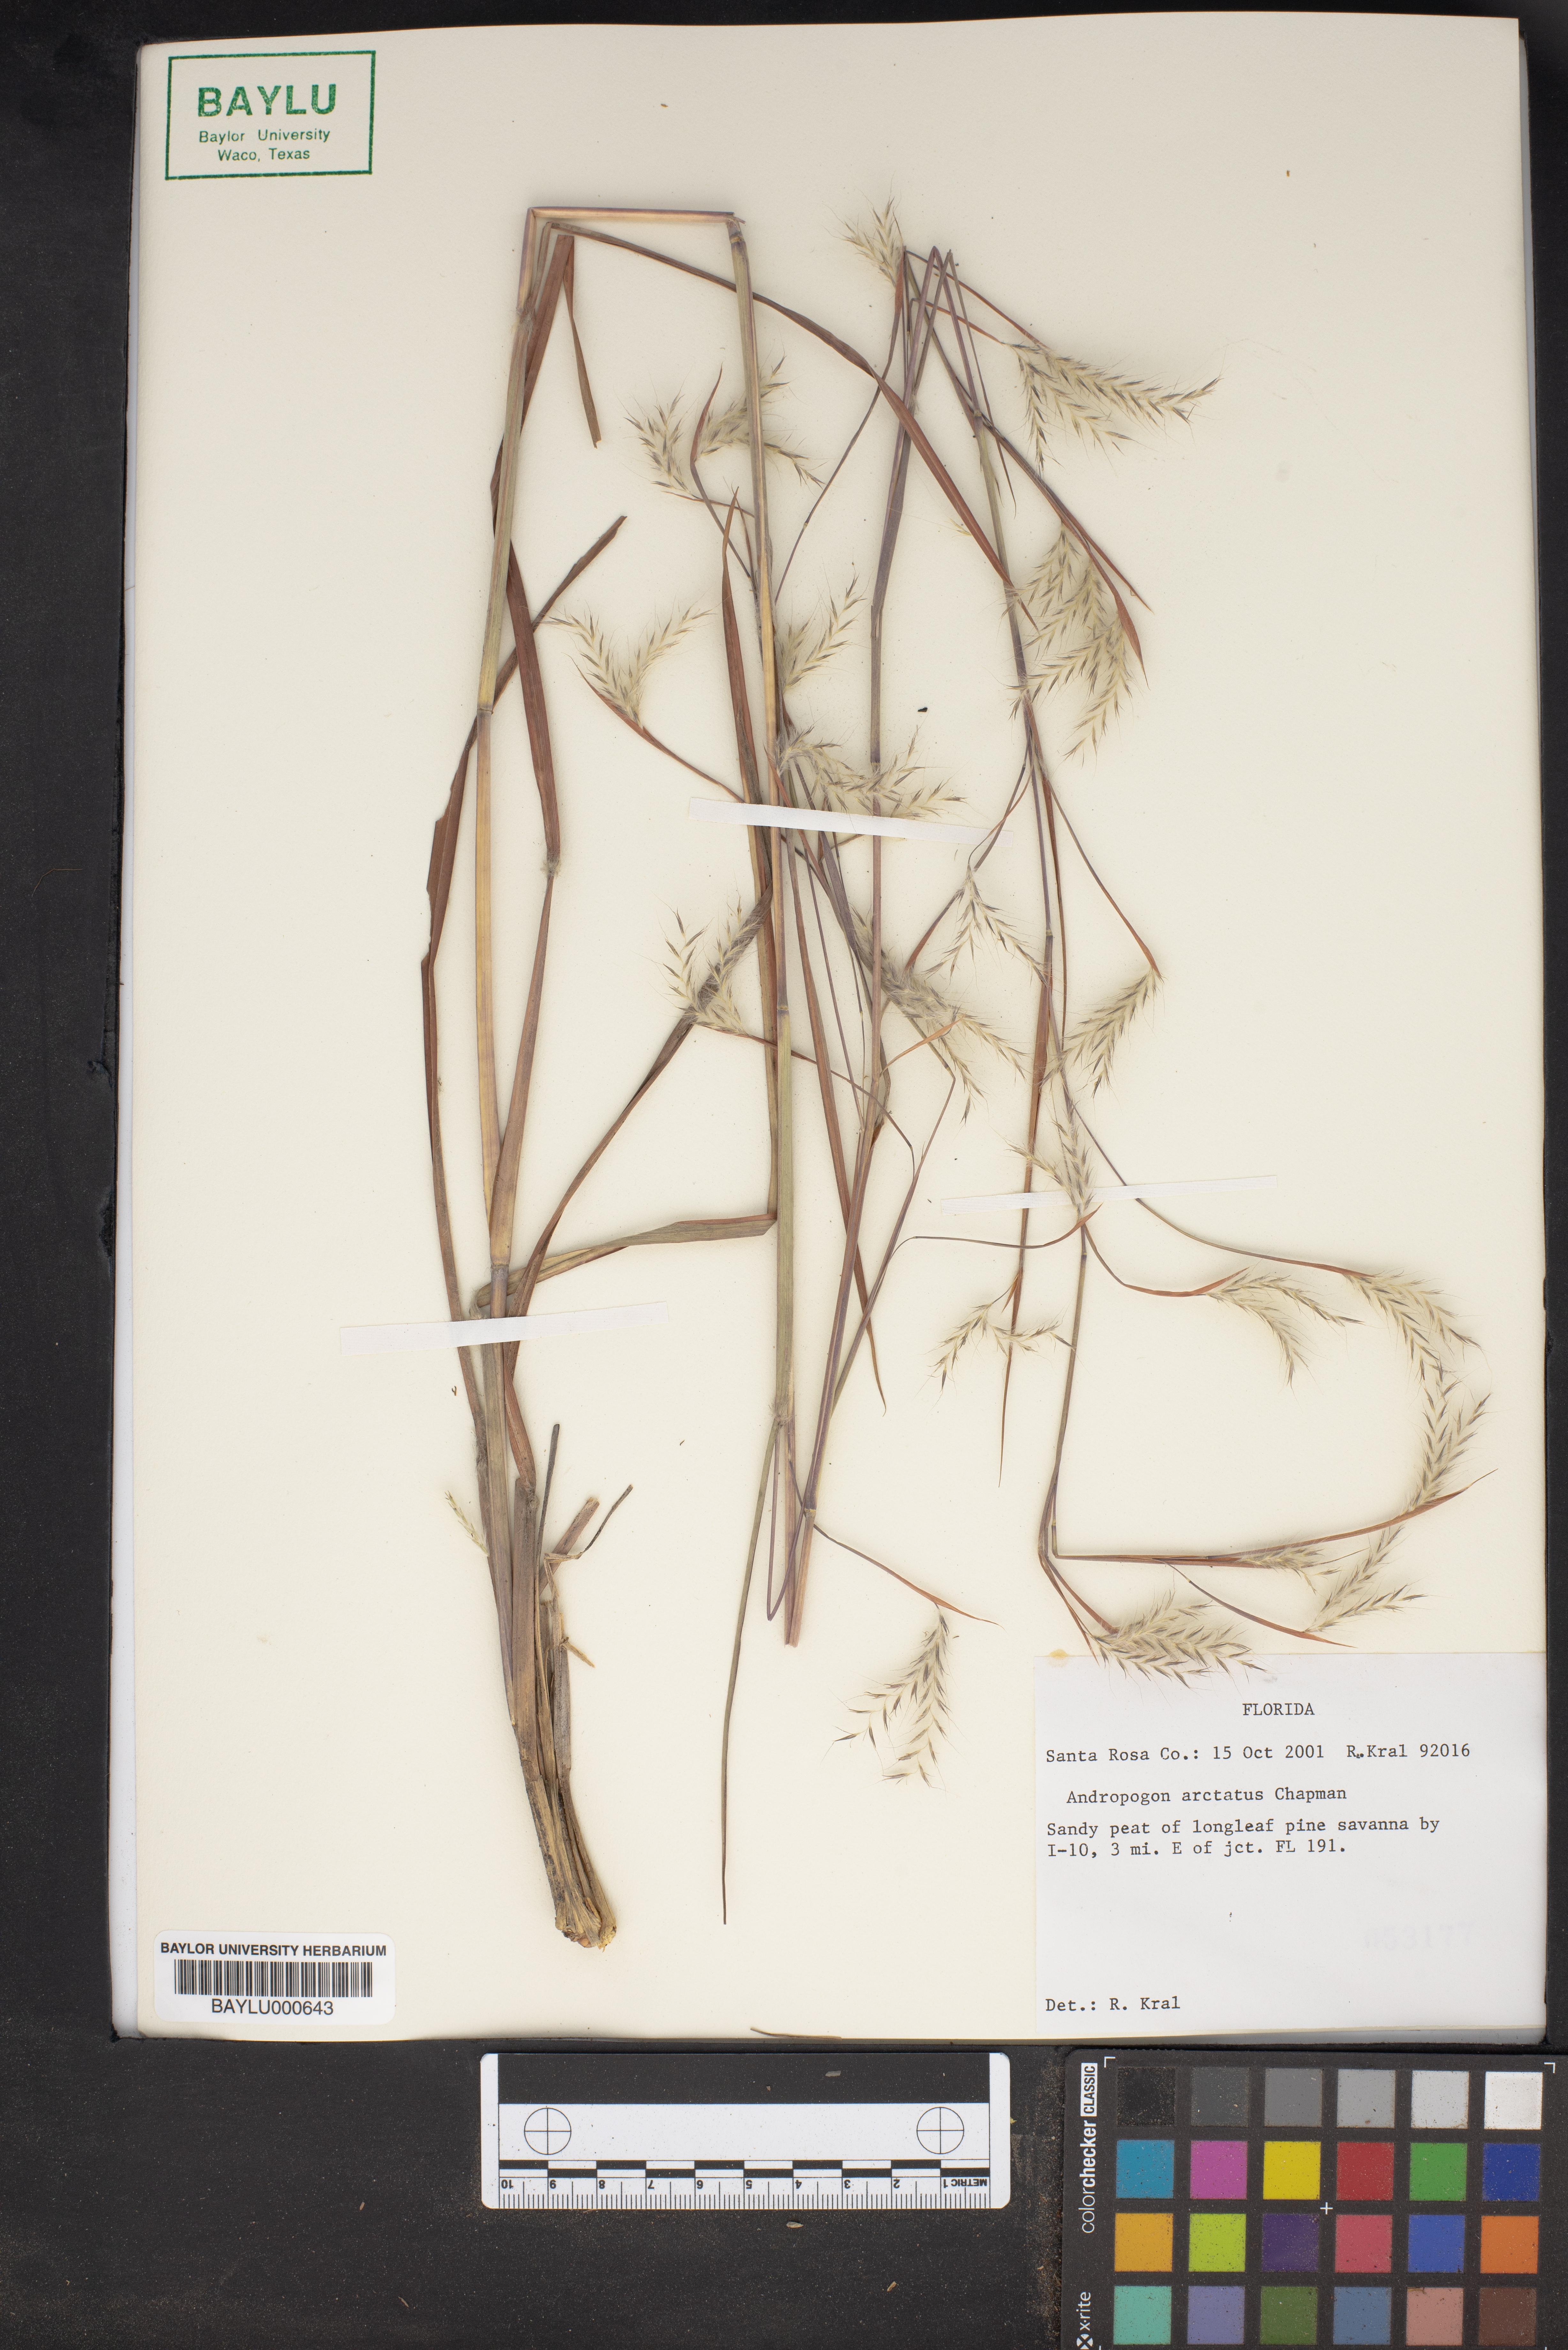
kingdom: Plantae
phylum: Tracheophyta
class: Liliopsida
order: Poales
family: Poaceae
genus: Andropogon
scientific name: Andropogon arctatus
